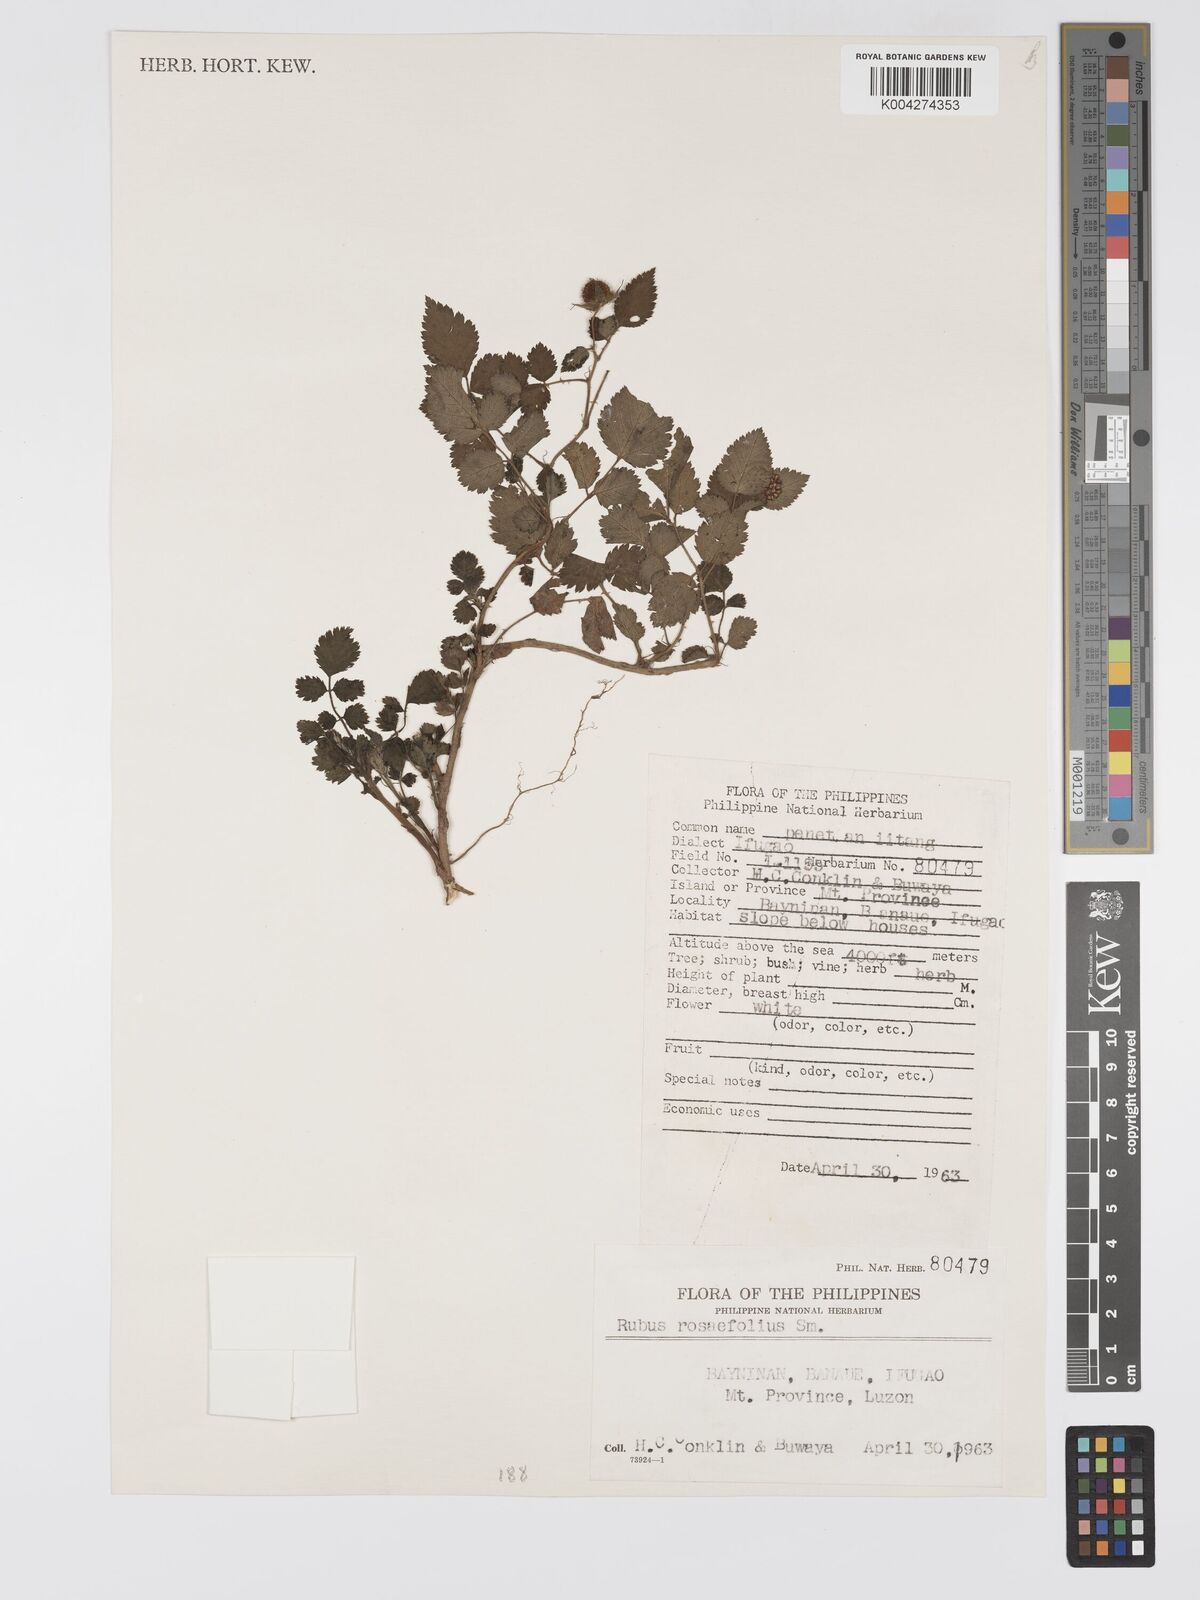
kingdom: Plantae
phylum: Tracheophyta
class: Magnoliopsida
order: Rosales
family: Rosaceae
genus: Rubus
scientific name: Rubus
